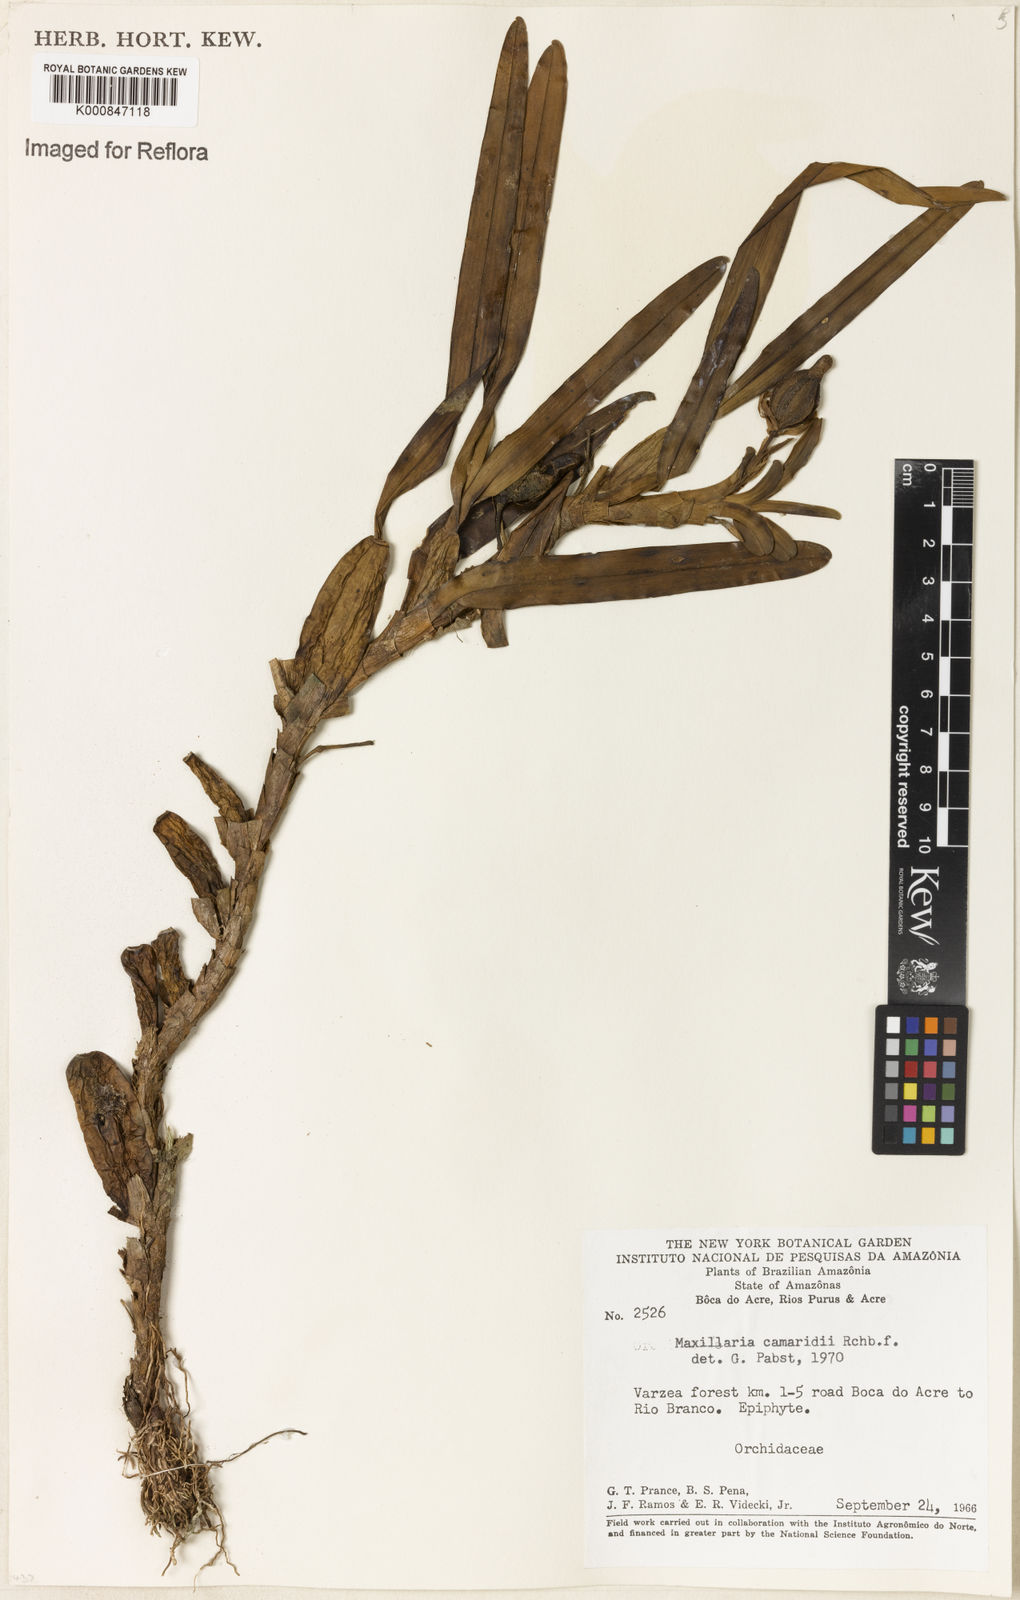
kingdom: Plantae
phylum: Tracheophyta
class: Liliopsida
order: Asparagales
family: Orchidaceae
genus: Maxillaria
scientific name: Maxillaria lutescens
